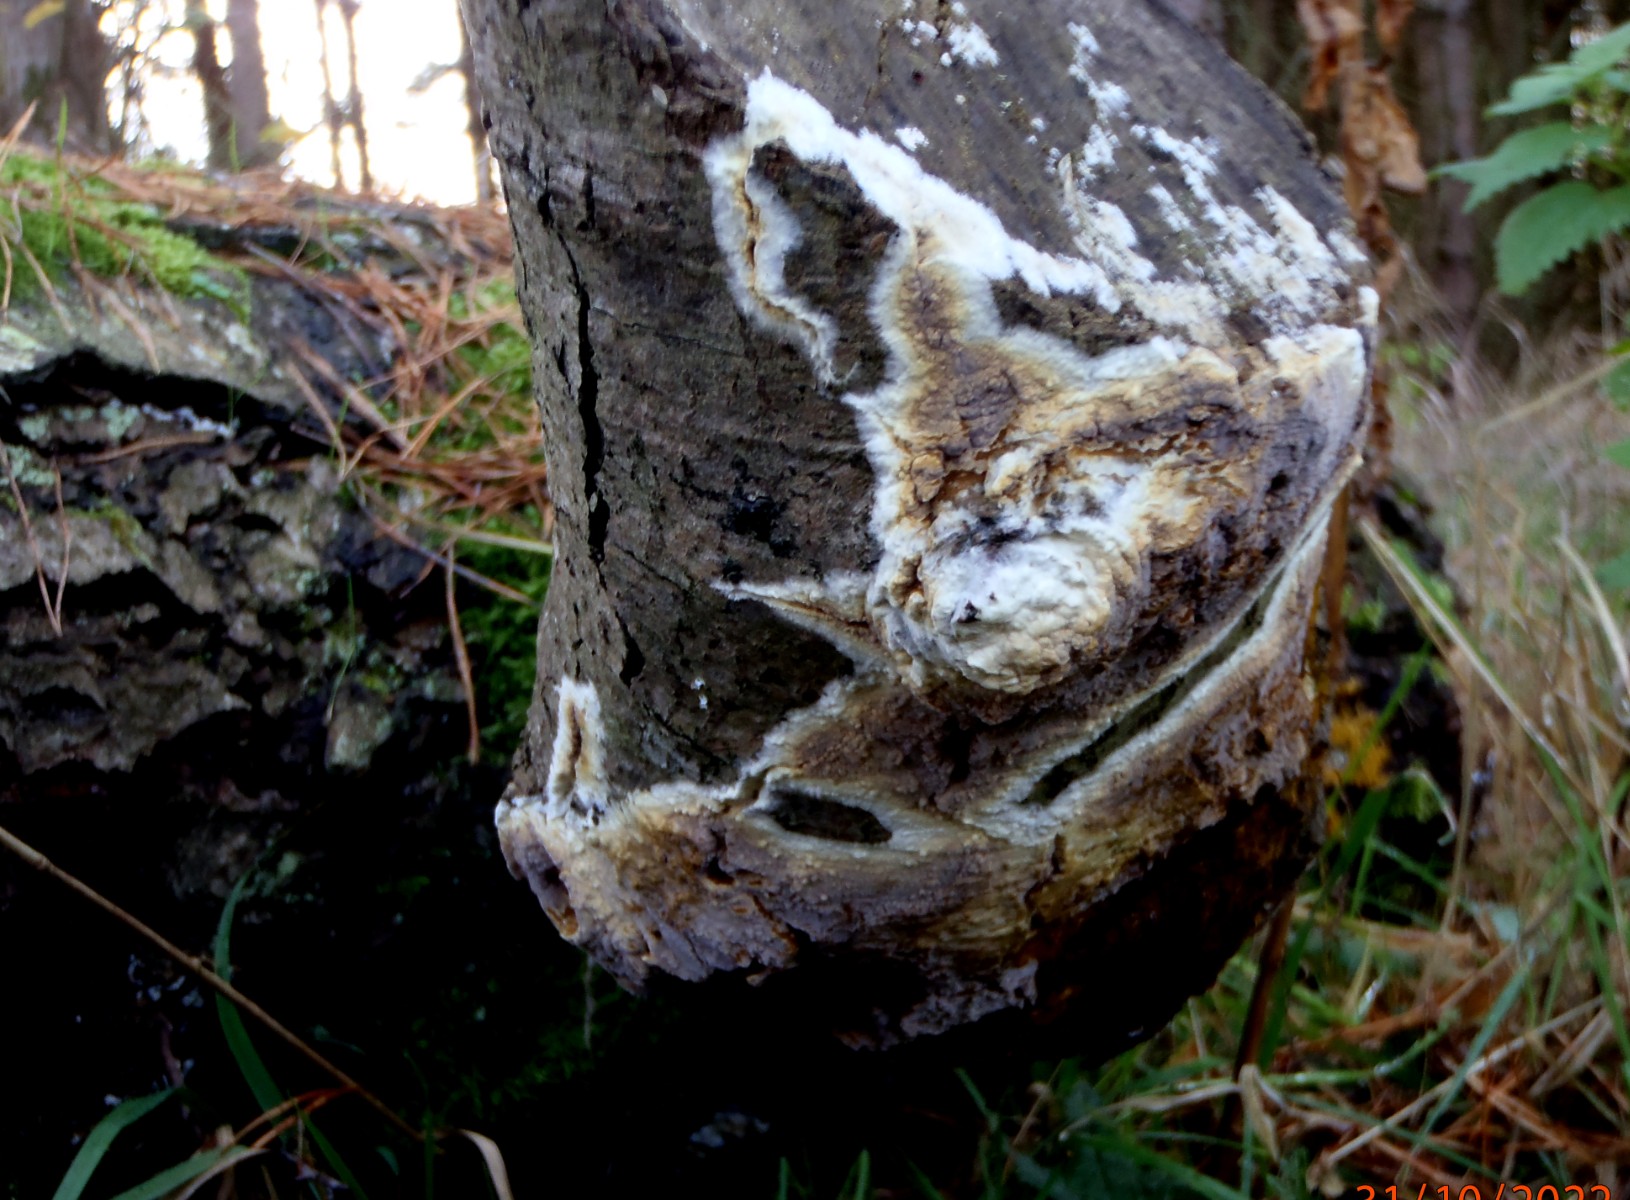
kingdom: Fungi
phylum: Basidiomycota
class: Agaricomycetes
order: Boletales
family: Coniophoraceae
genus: Coniophora
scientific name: Coniophora puteana
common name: gul tømmersvamp
